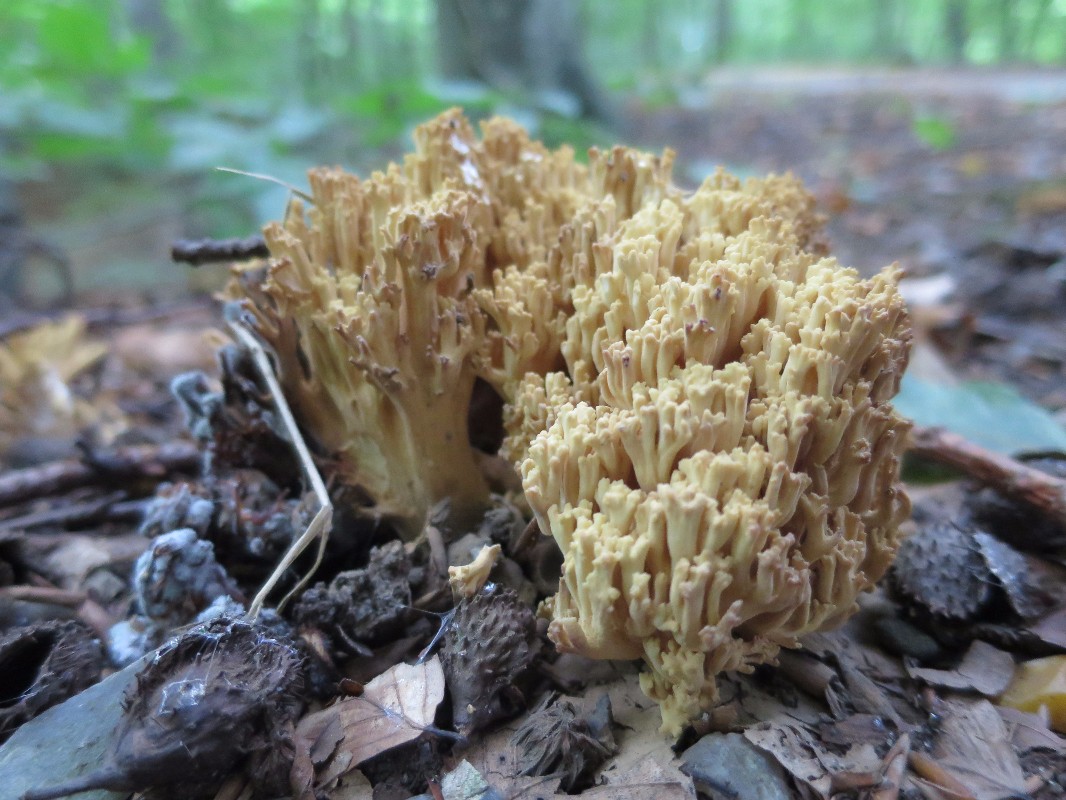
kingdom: Fungi
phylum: Basidiomycota
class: Agaricomycetes
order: Gomphales
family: Gomphaceae
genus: Ramaria
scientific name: Ramaria sanguinea
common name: blodplettet koralsvamp
